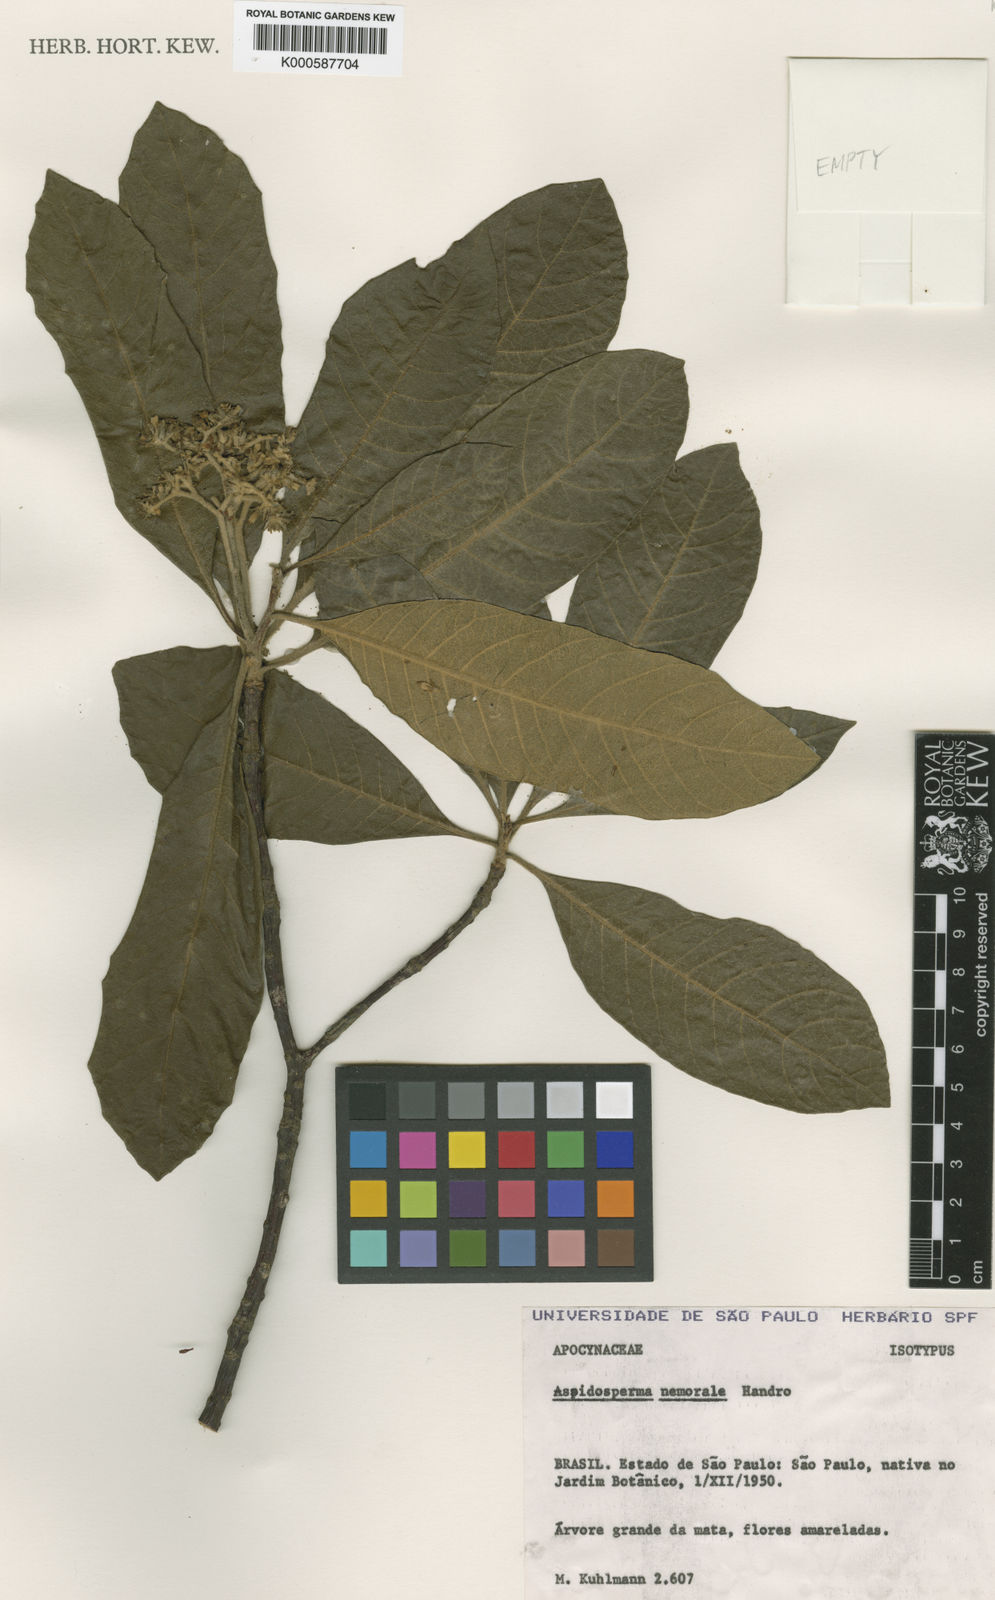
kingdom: Plantae
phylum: Tracheophyta
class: Magnoliopsida
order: Gentianales
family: Apocynaceae
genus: Aspidosperma
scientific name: Aspidosperma nemorale
